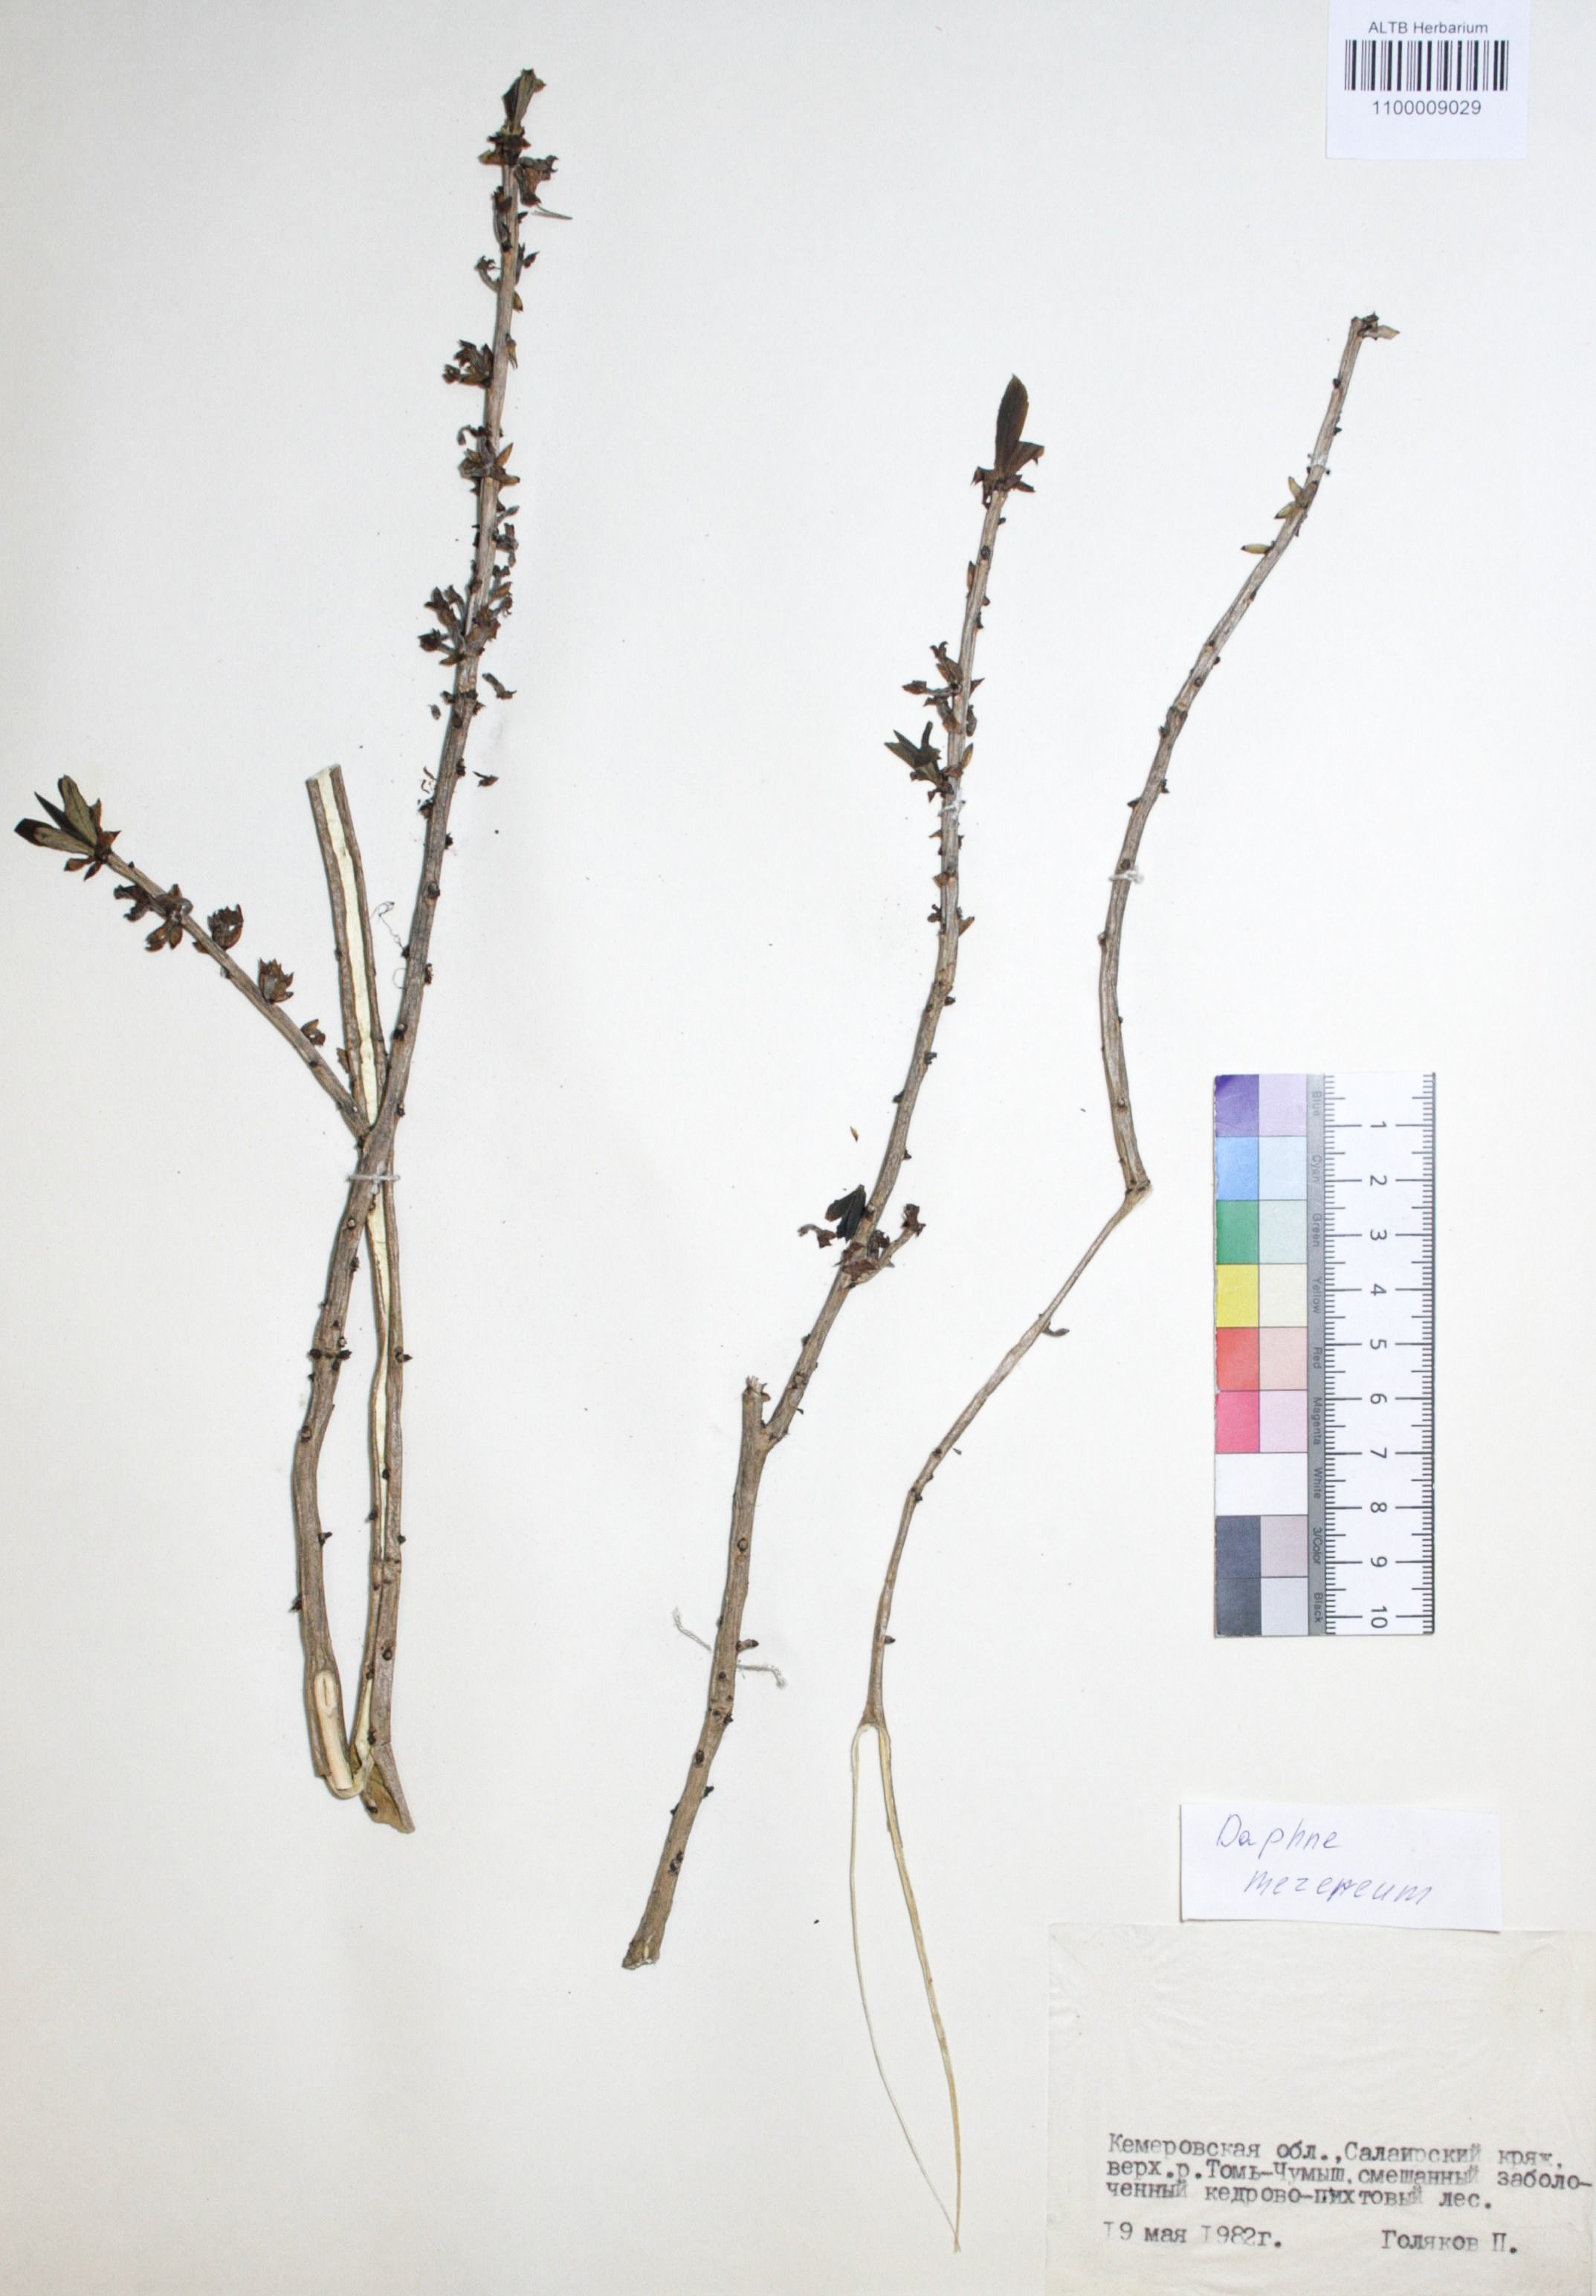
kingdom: Plantae
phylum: Tracheophyta
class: Magnoliopsida
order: Malvales
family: Thymelaeaceae
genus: Daphne
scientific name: Daphne mezereum
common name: Mezereon
